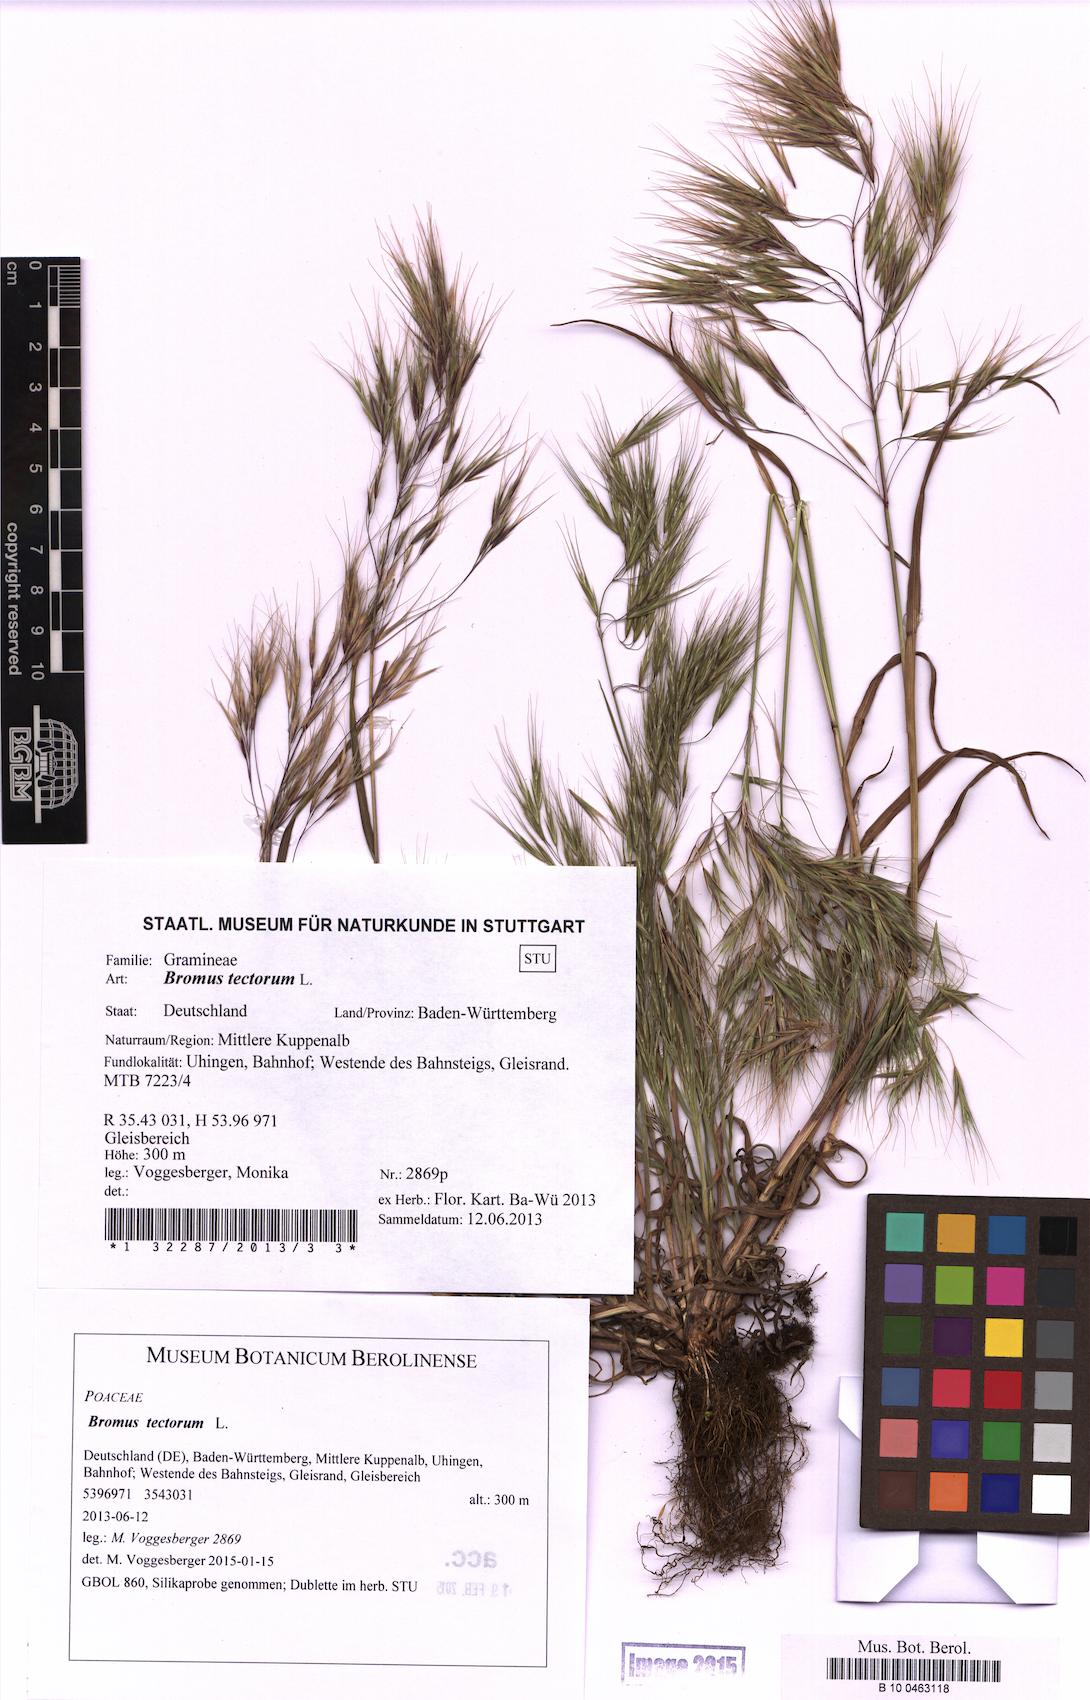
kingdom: Plantae
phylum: Tracheophyta
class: Liliopsida
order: Poales
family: Poaceae
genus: Bromus
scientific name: Bromus tectorum
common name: Cheatgrass
